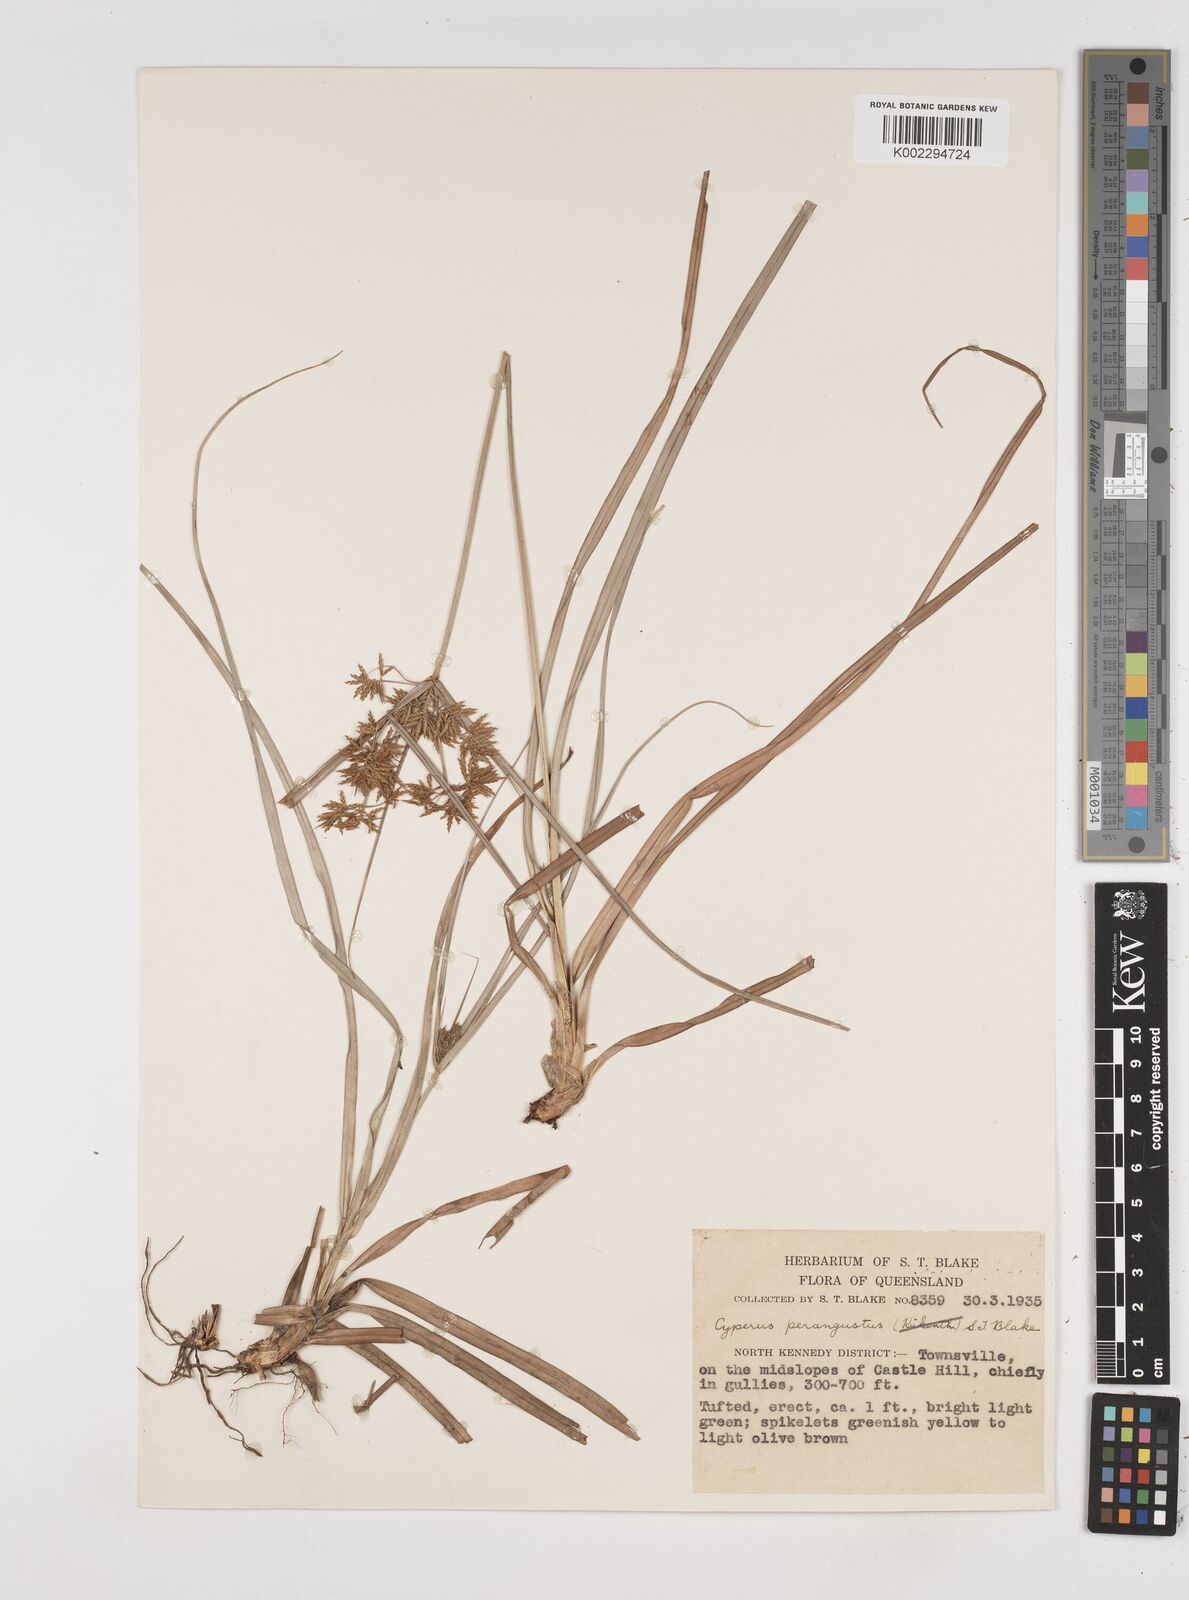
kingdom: Plantae
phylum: Tracheophyta
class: Liliopsida
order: Poales
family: Cyperaceae
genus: Cyperus
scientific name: Cyperus perangustus
